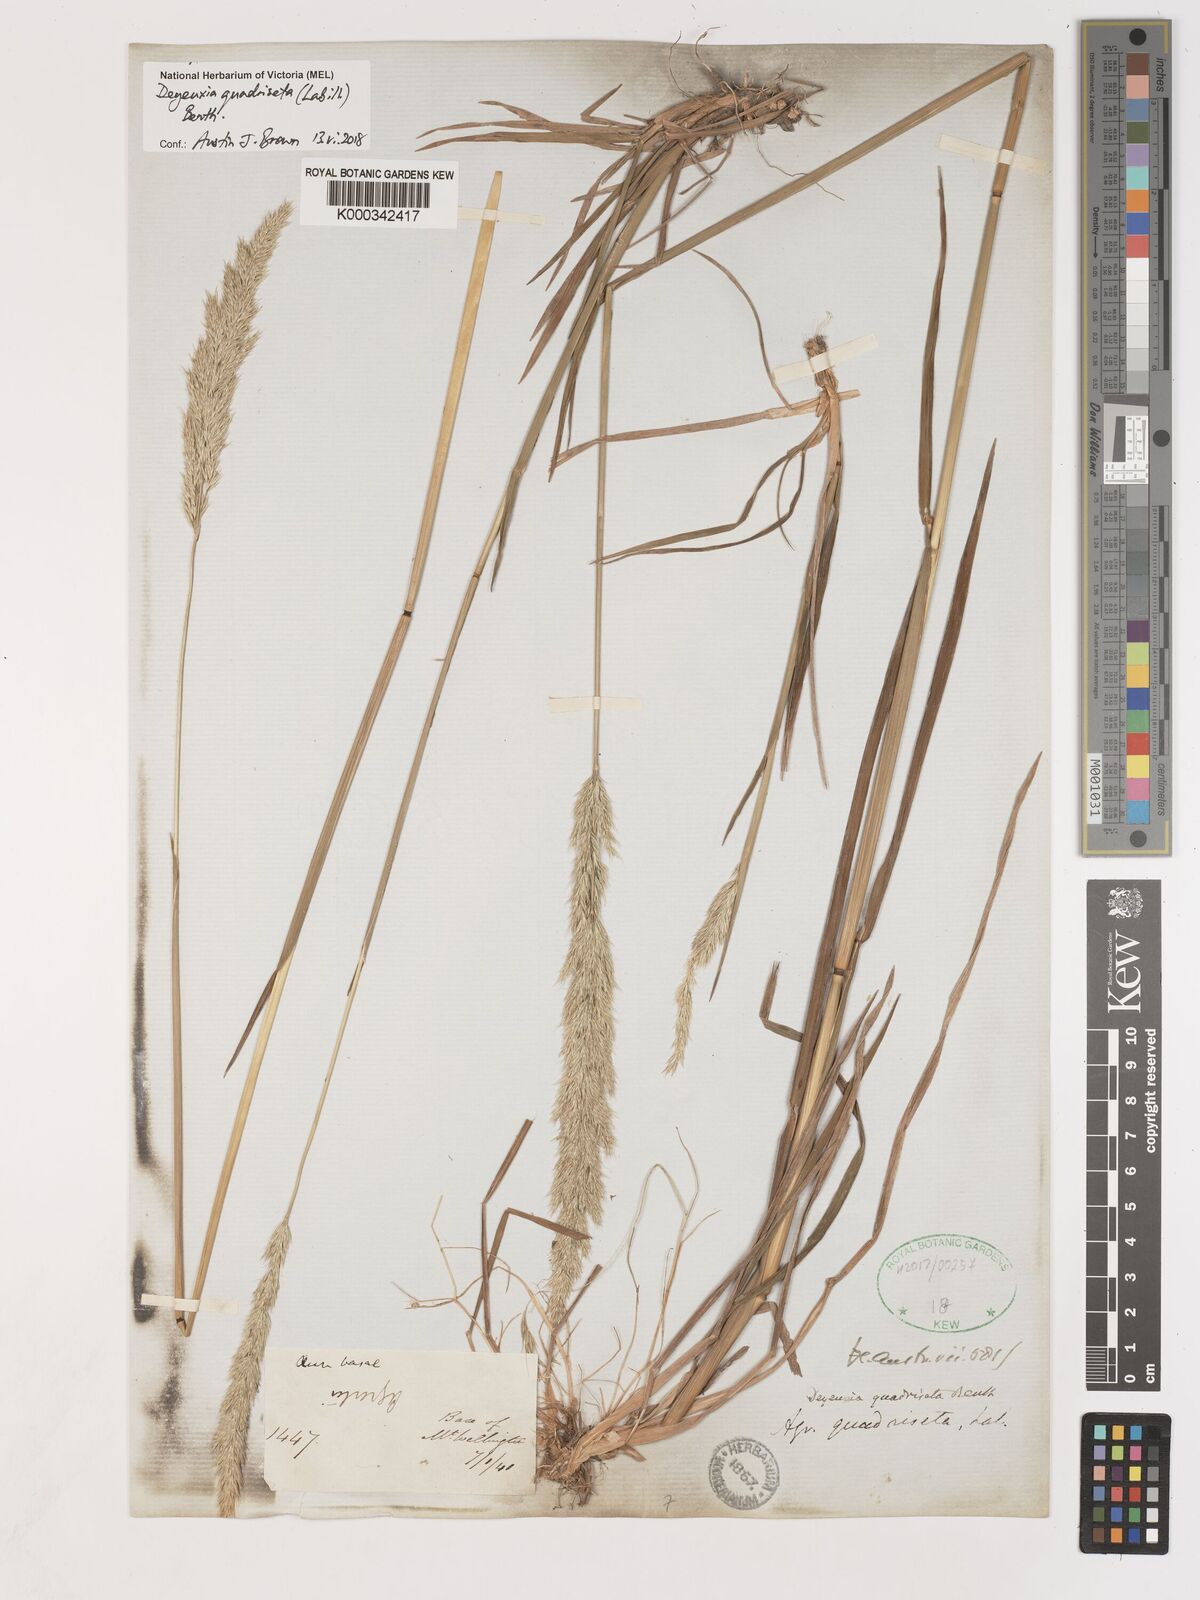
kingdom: Plantae
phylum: Tracheophyta
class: Liliopsida
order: Poales
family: Poaceae
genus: Calamagrostis
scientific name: Calamagrostis quadriseta
